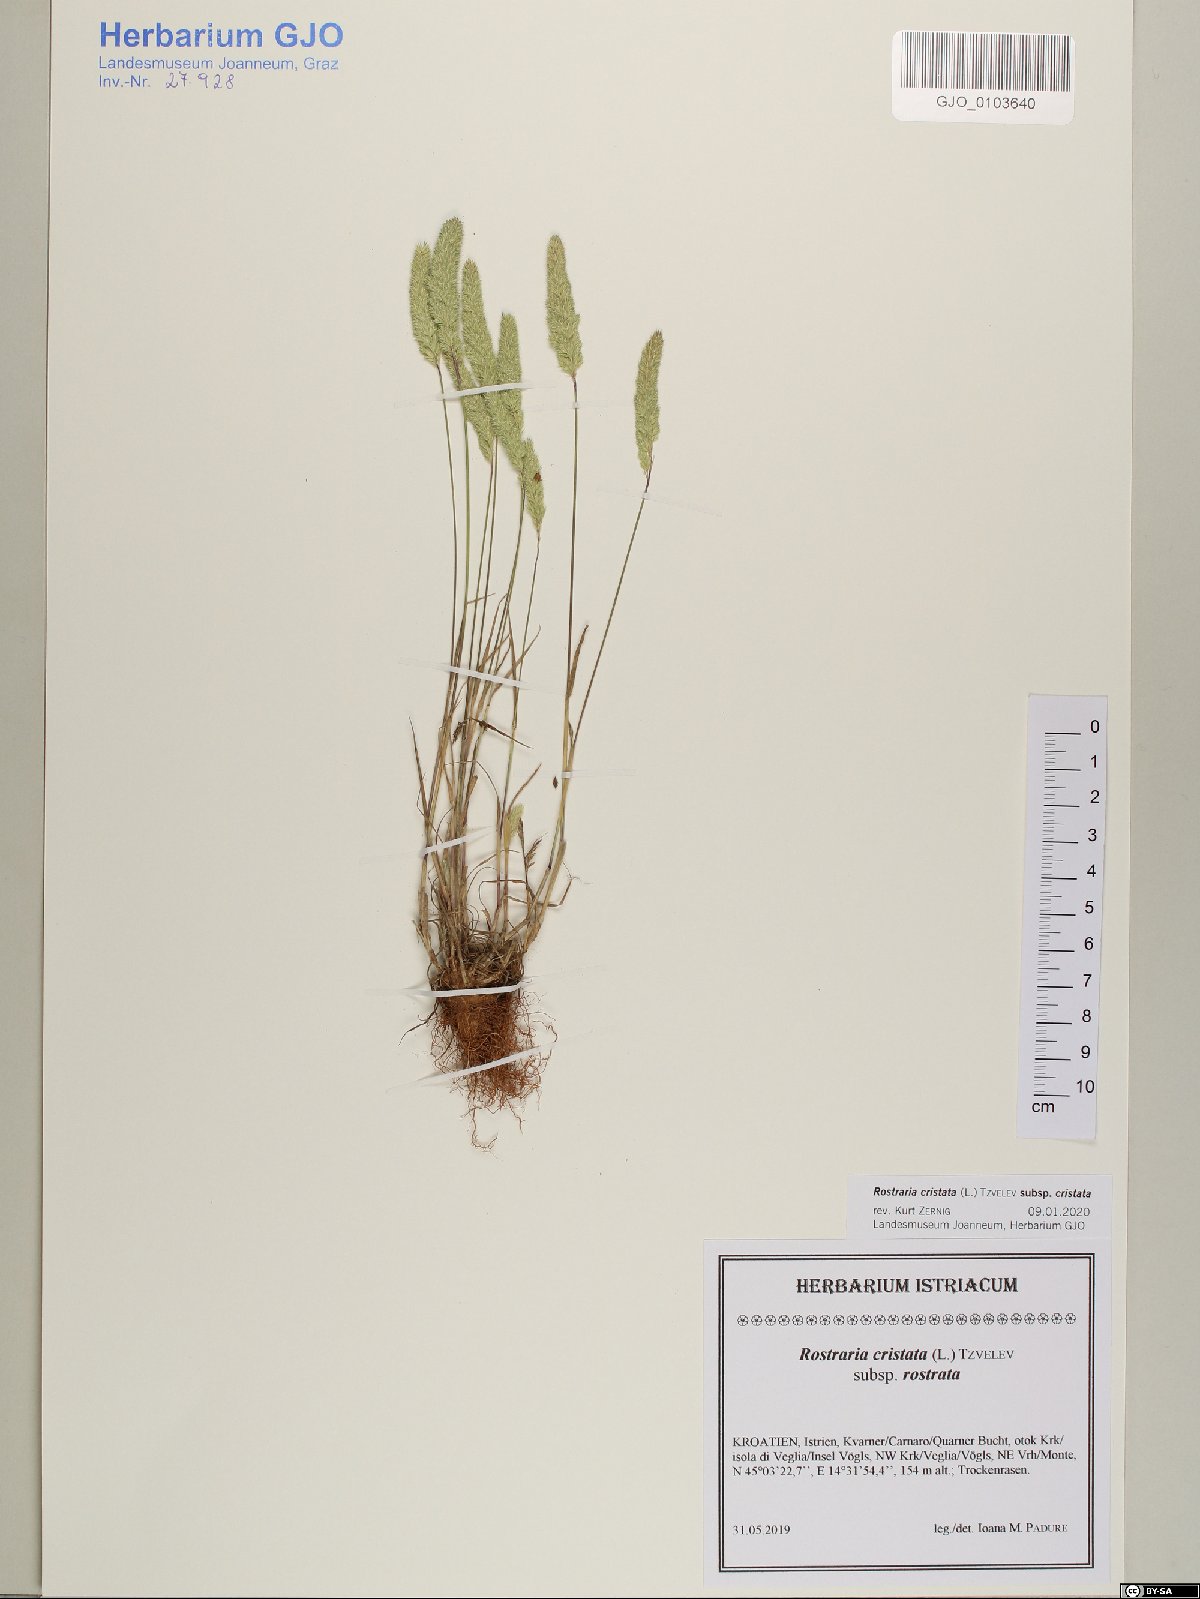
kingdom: Plantae
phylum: Tracheophyta
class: Liliopsida
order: Poales
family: Poaceae
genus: Rostraria
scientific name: Rostraria cristata
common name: Mediterranean hair-grass
